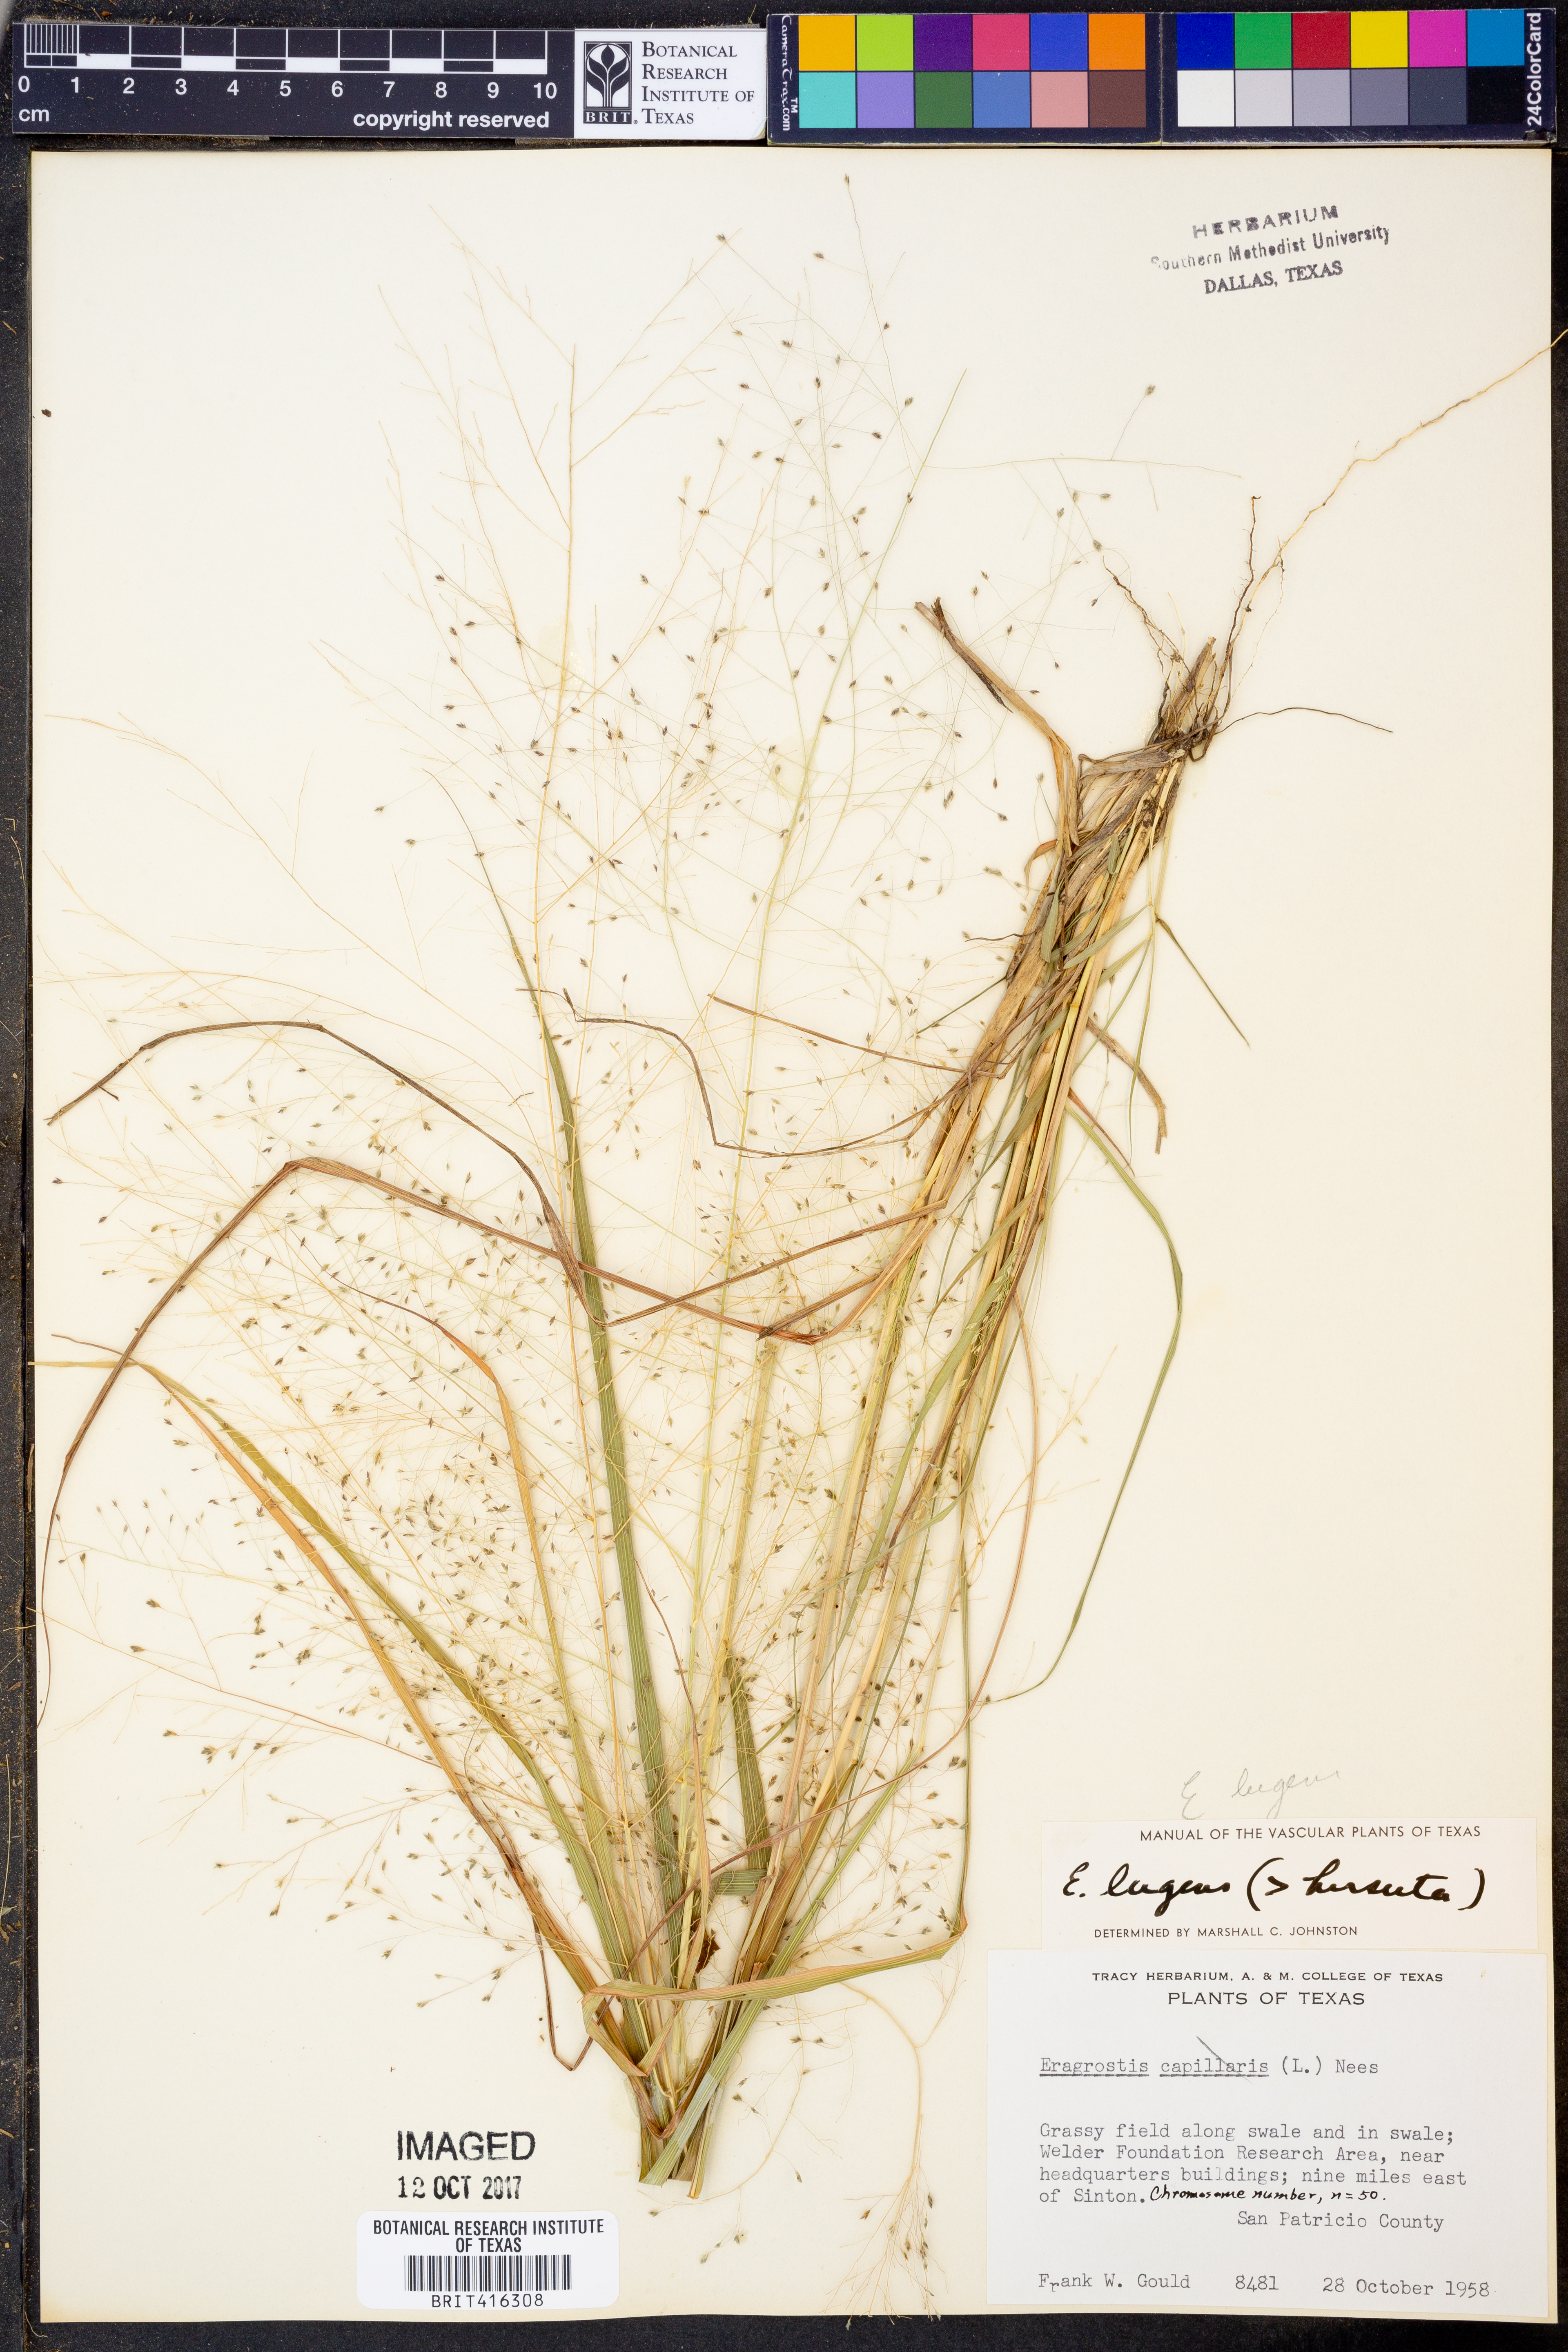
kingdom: Plantae
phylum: Tracheophyta
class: Liliopsida
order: Poales
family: Poaceae
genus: Eragrostis
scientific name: Eragrostis capillaris
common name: Hair-like lovegrass
